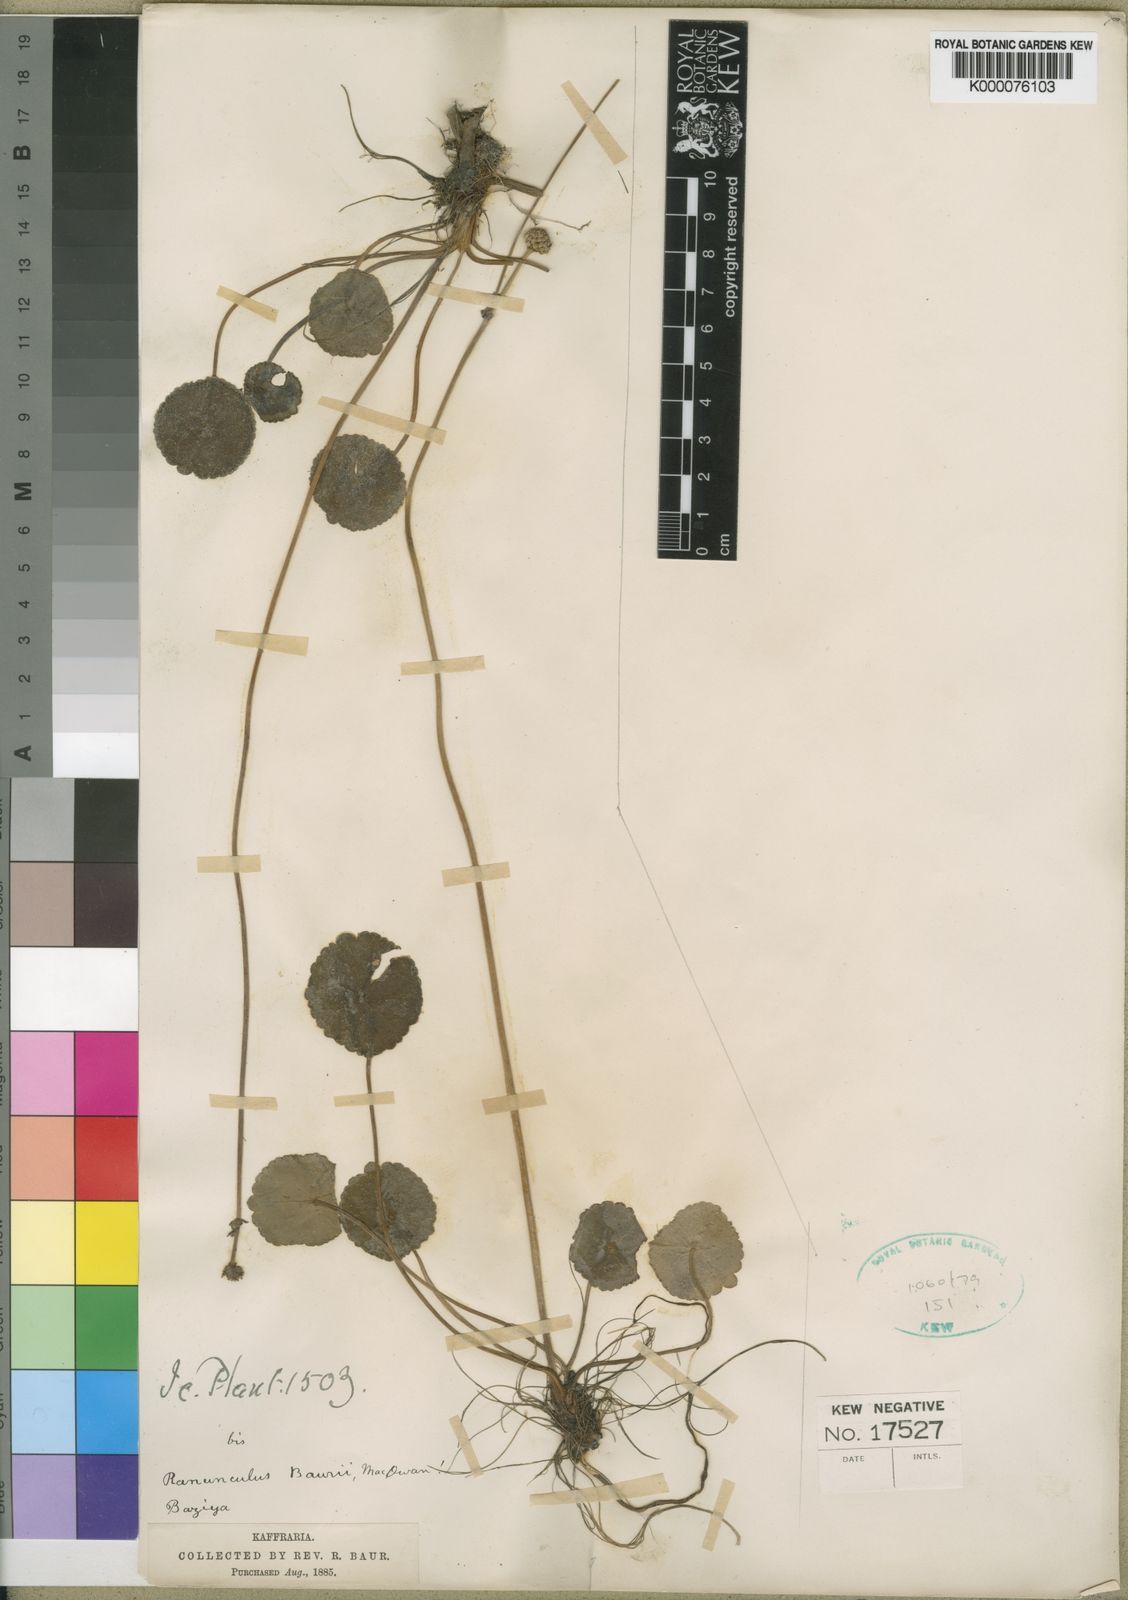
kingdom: Plantae
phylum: Tracheophyta
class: Magnoliopsida
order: Ranunculales
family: Ranunculaceae
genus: Peltocalathos
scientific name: Peltocalathos baurii
